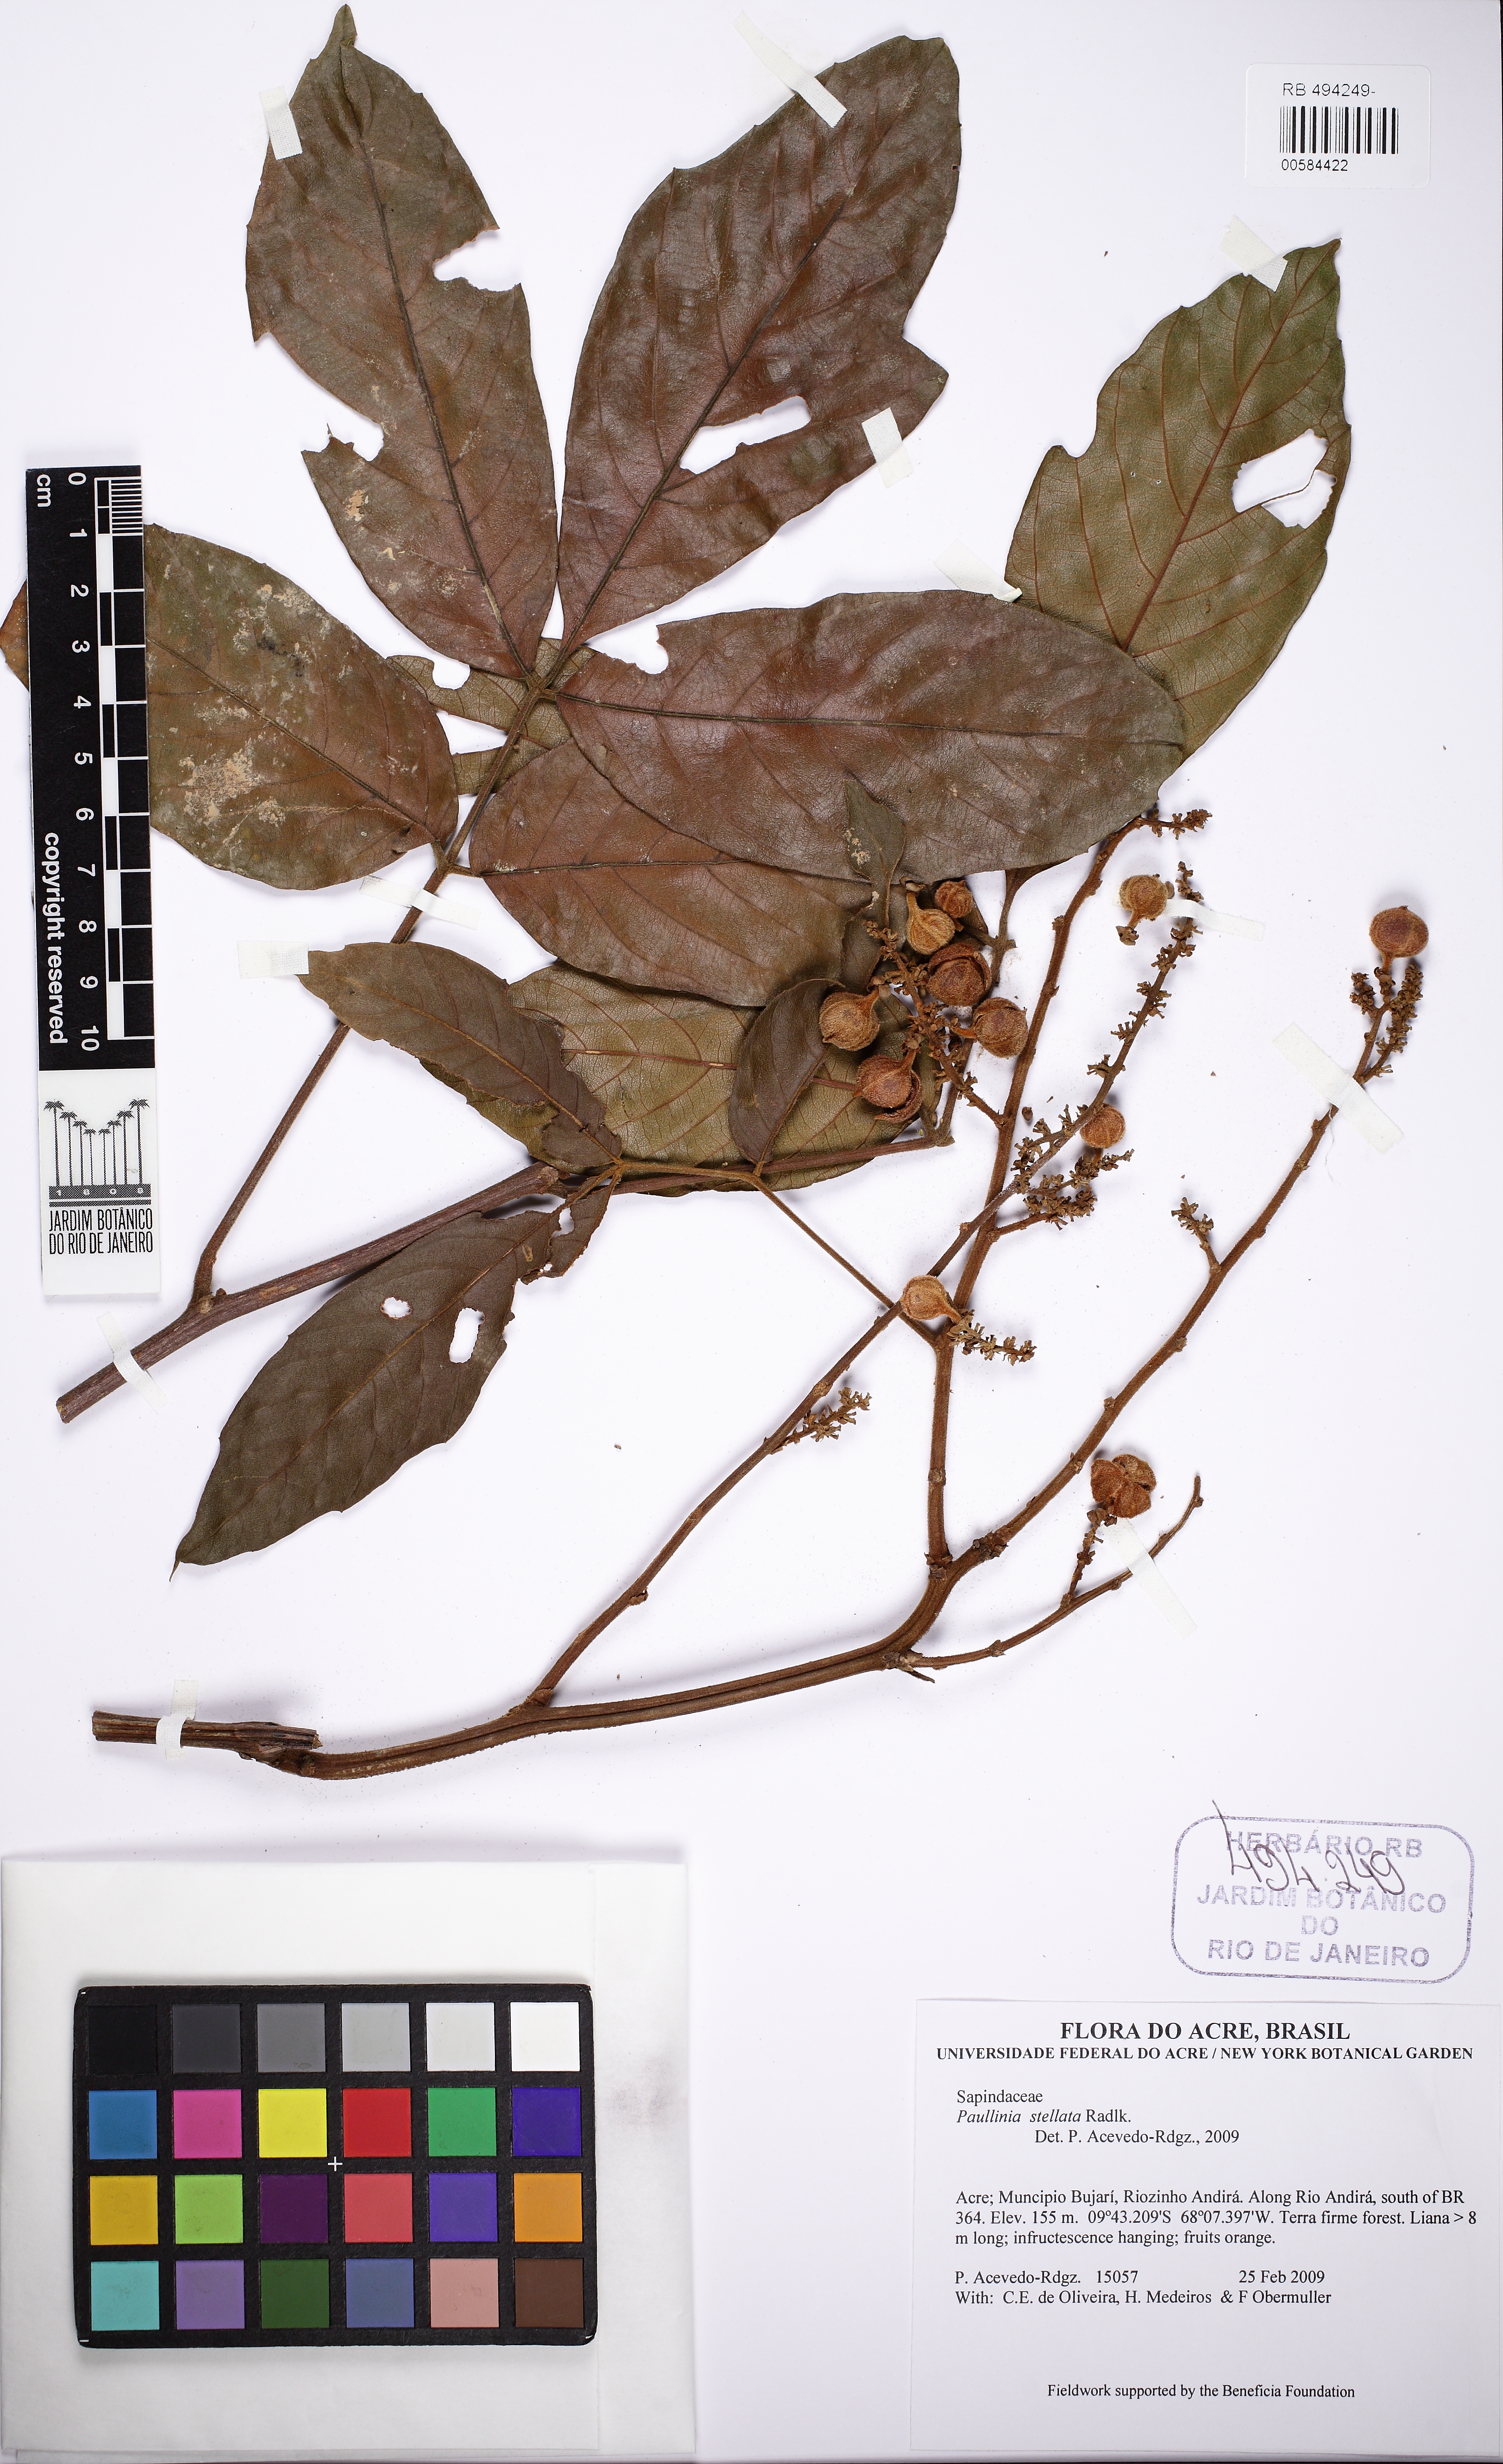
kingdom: Plantae
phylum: Tracheophyta
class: Magnoliopsida
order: Sapindales
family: Sapindaceae
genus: Paullinia
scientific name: Paullinia stellata
